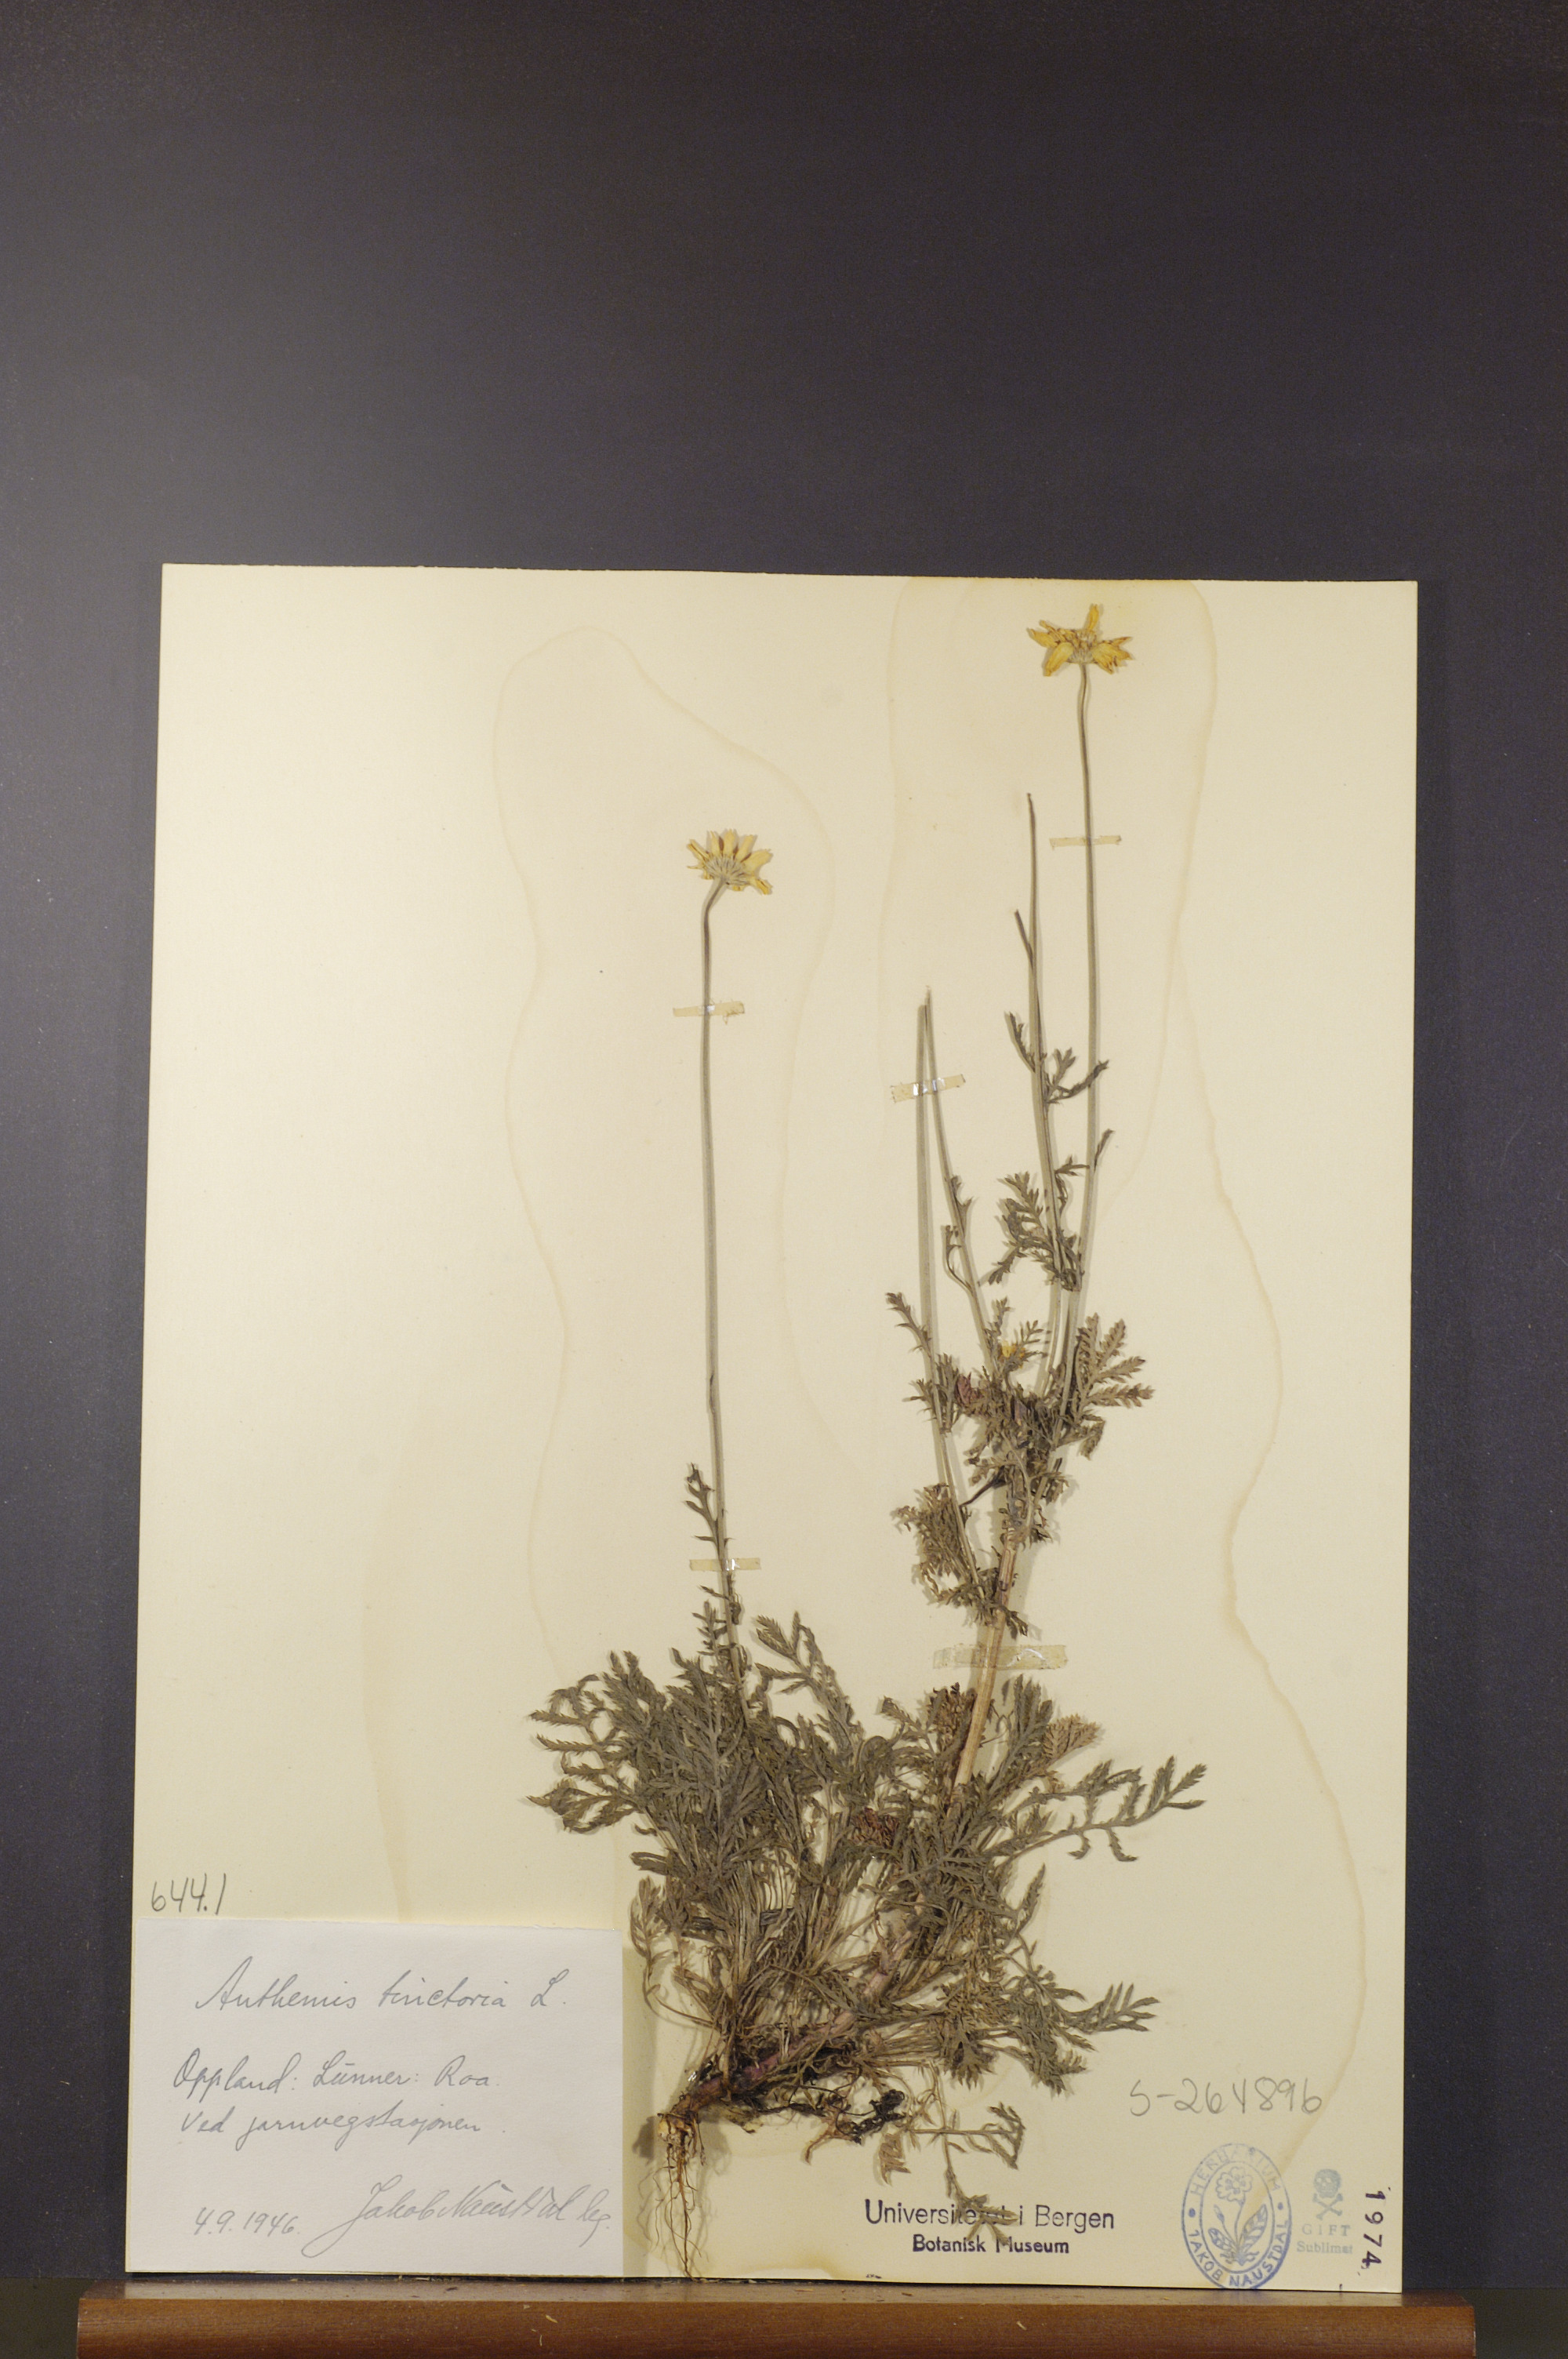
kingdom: Plantae
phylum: Tracheophyta
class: Magnoliopsida
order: Asterales
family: Asteraceae
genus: Cota
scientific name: Cota tinctoria
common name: Golden chamomile
